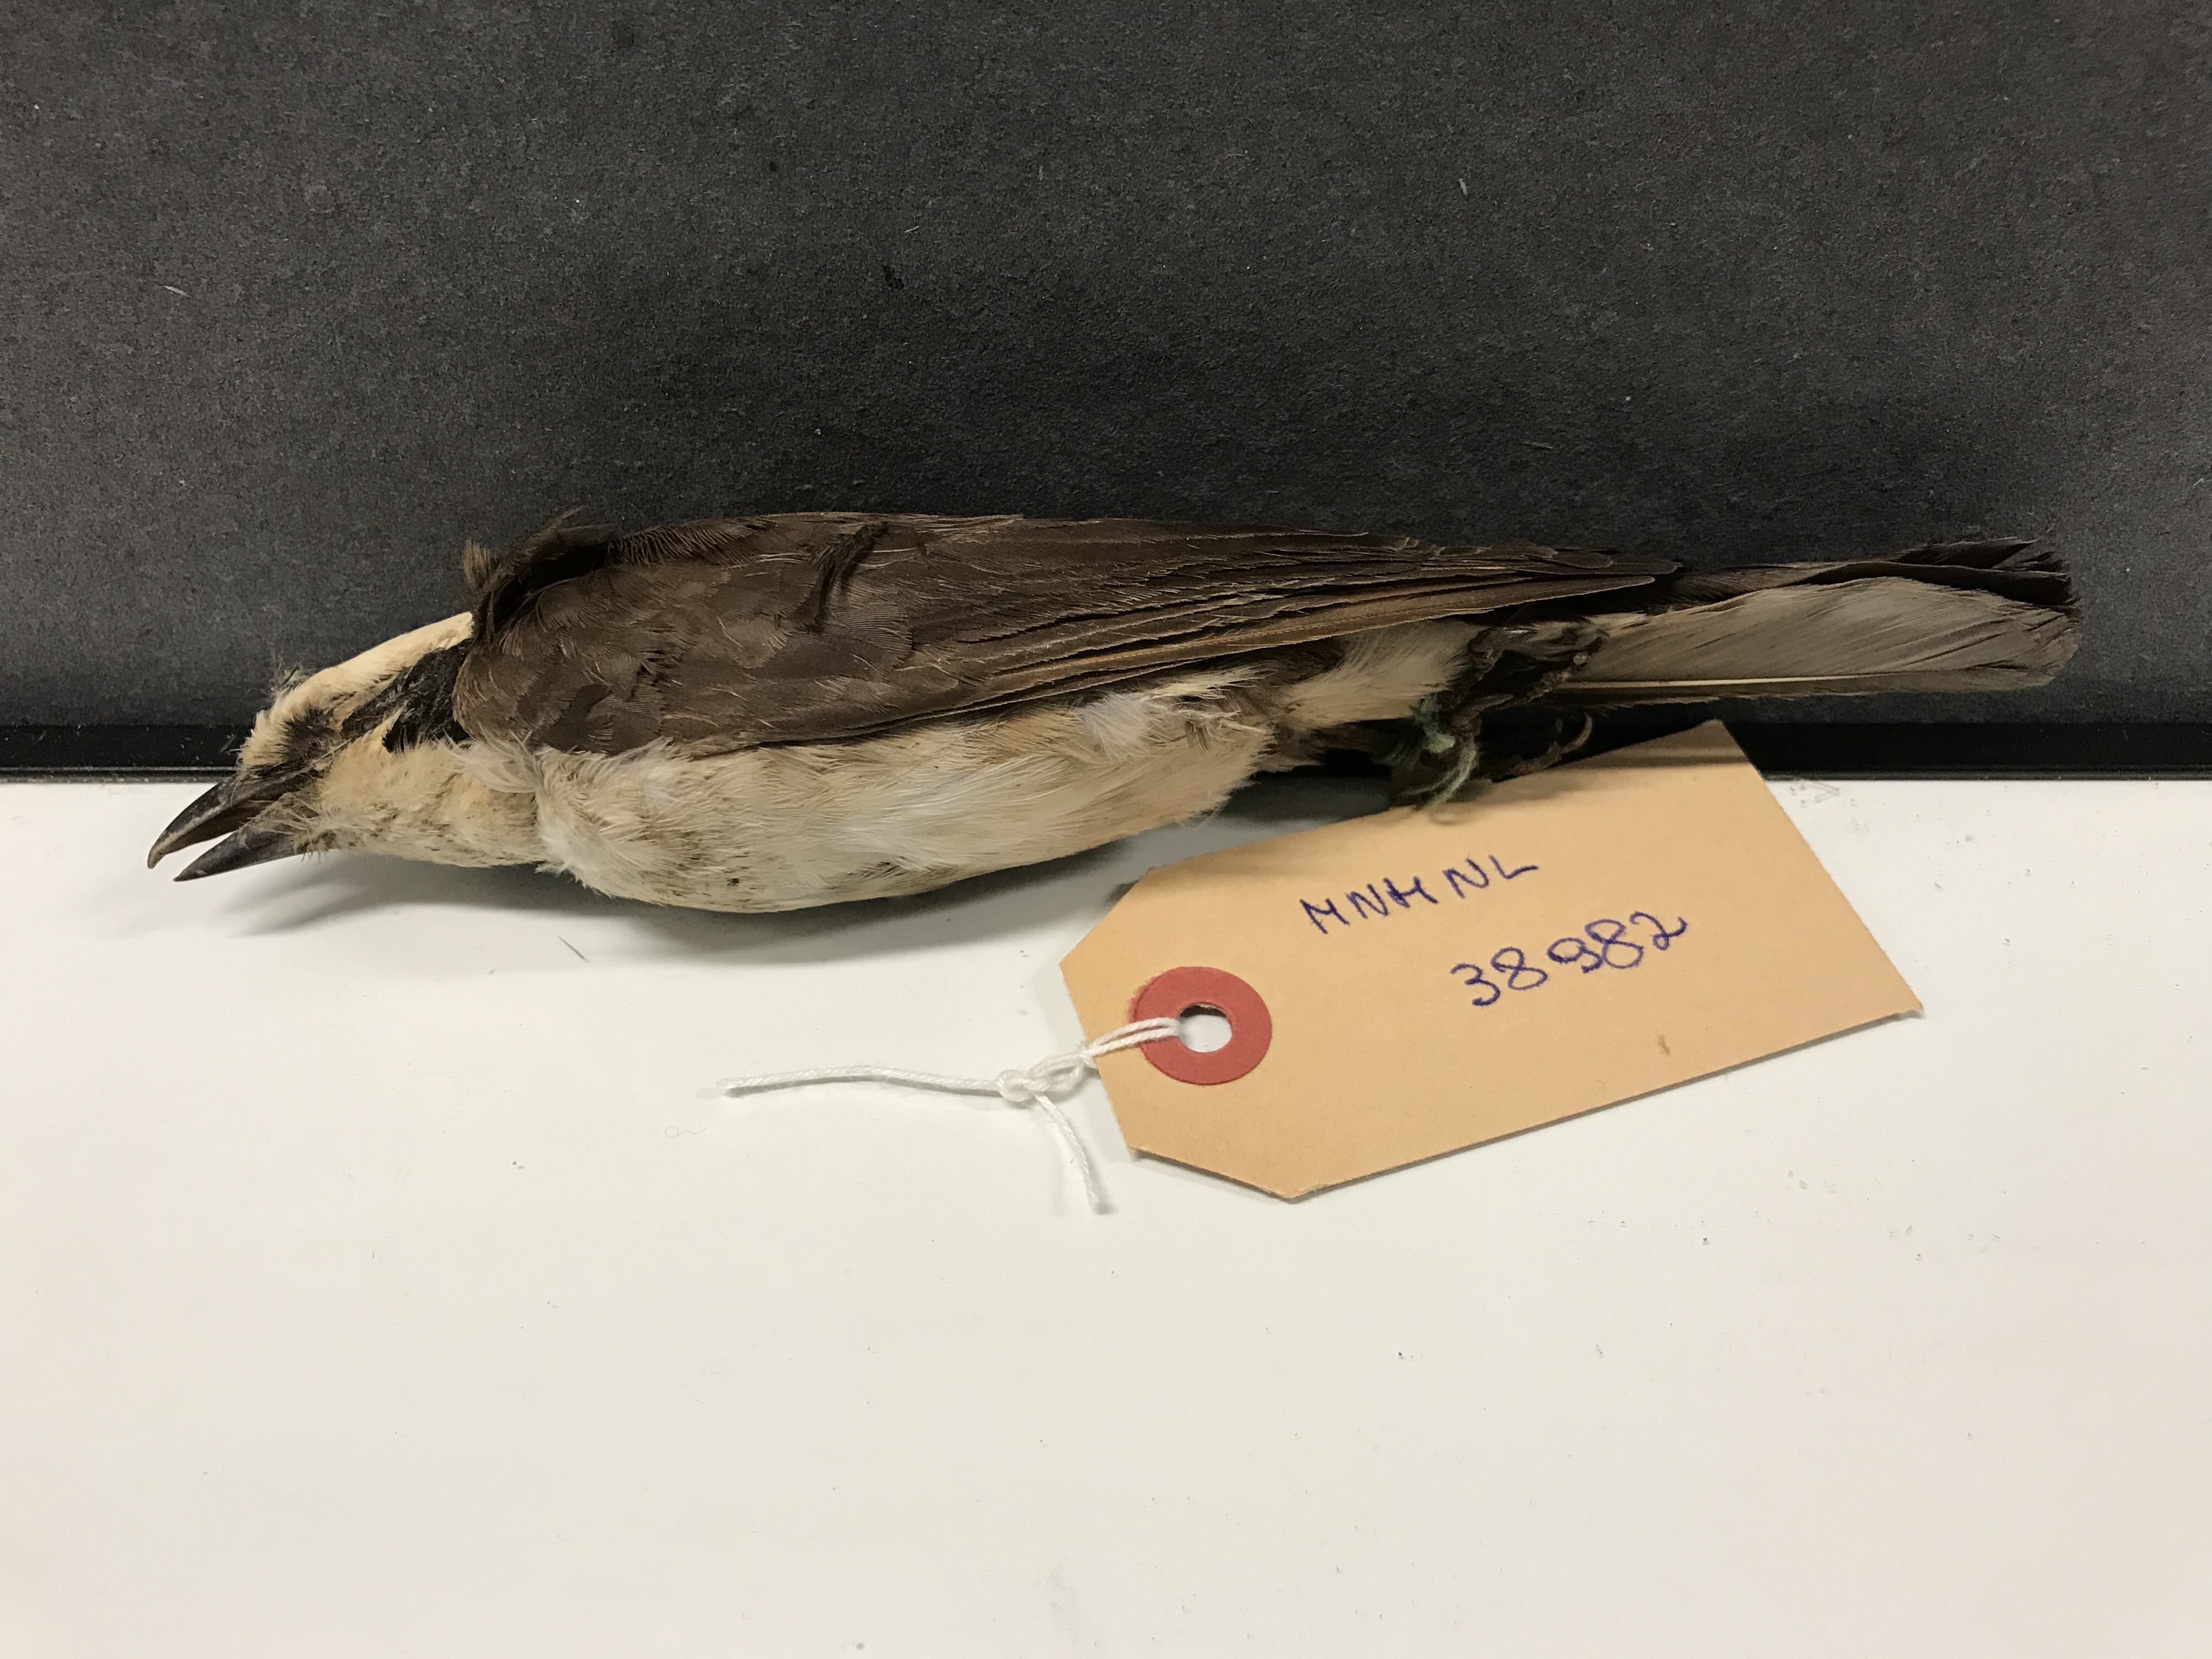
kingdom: Animalia
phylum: Chordata
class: Aves
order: Passeriformes
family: Laniidae
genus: Eurocephalus
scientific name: Eurocephalus ruppelli
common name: Northern white-crowned shrike
